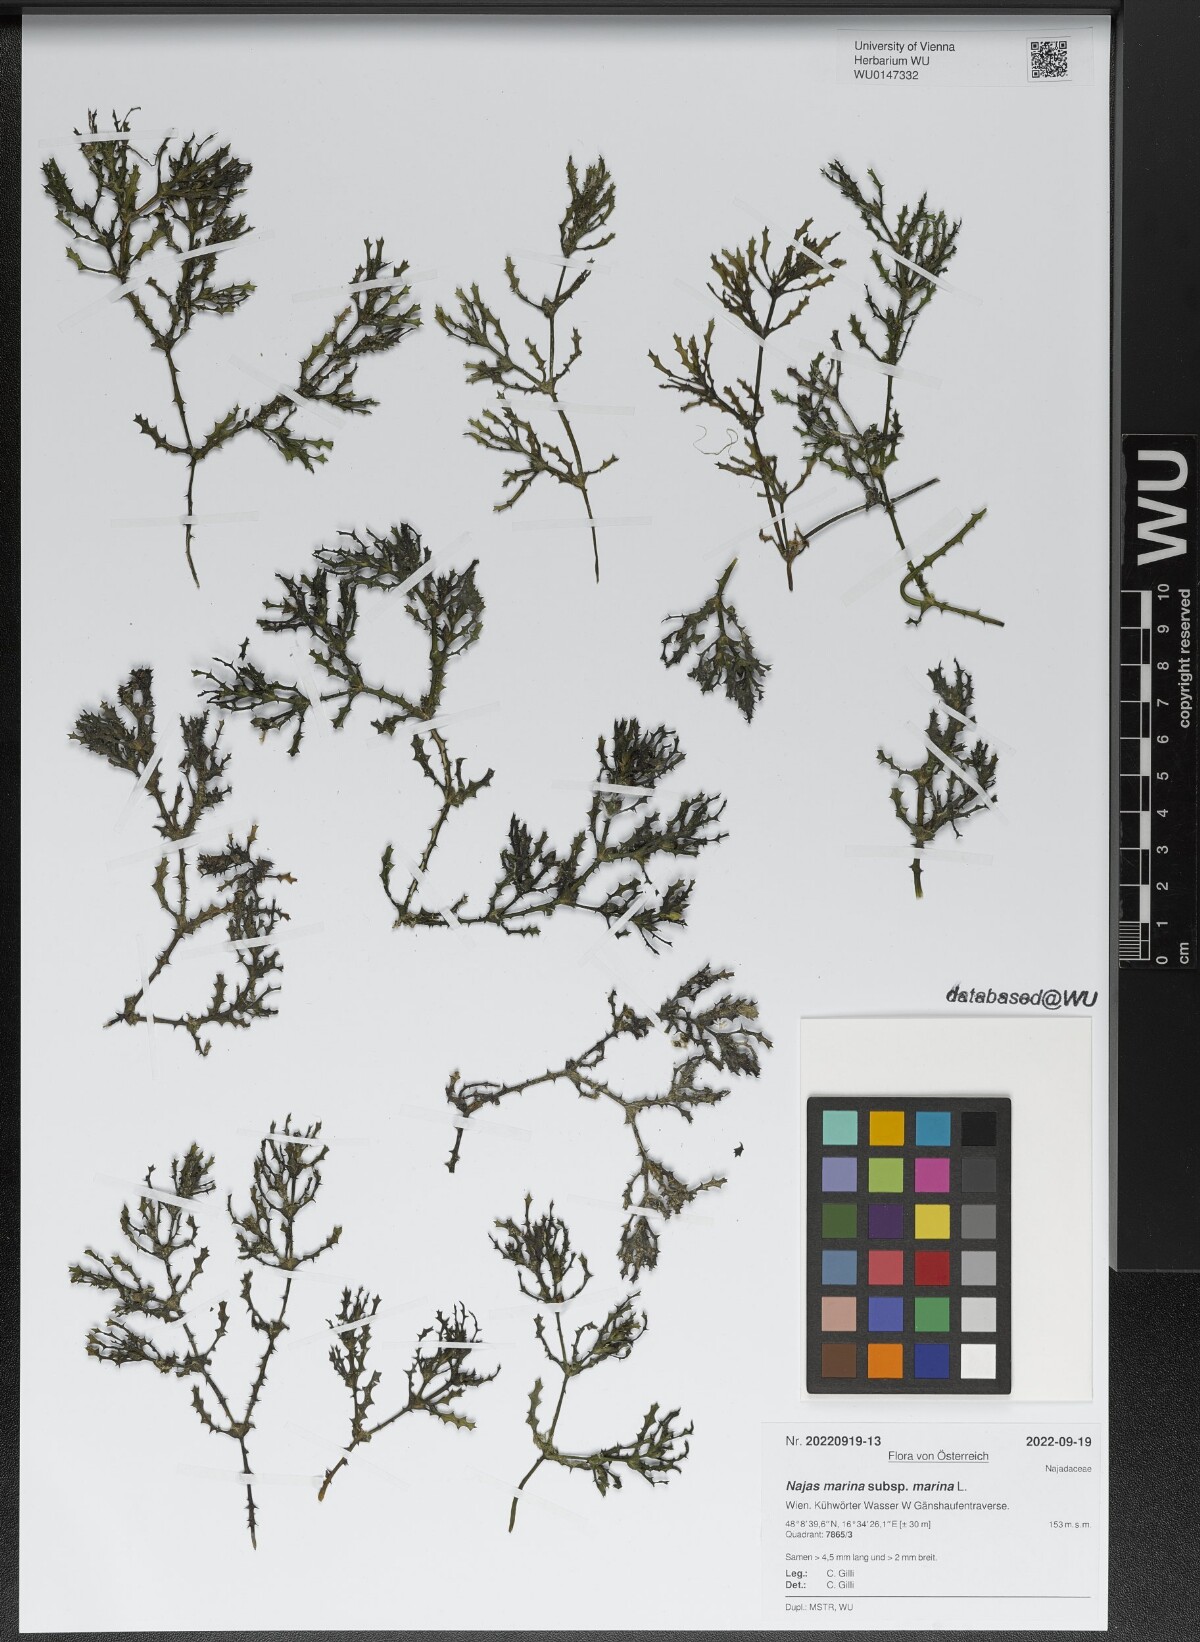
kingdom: Plantae
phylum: Tracheophyta
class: Liliopsida
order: Alismatales
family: Hydrocharitaceae
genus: Najas
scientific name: Najas marina
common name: Holly-leaved naiad
